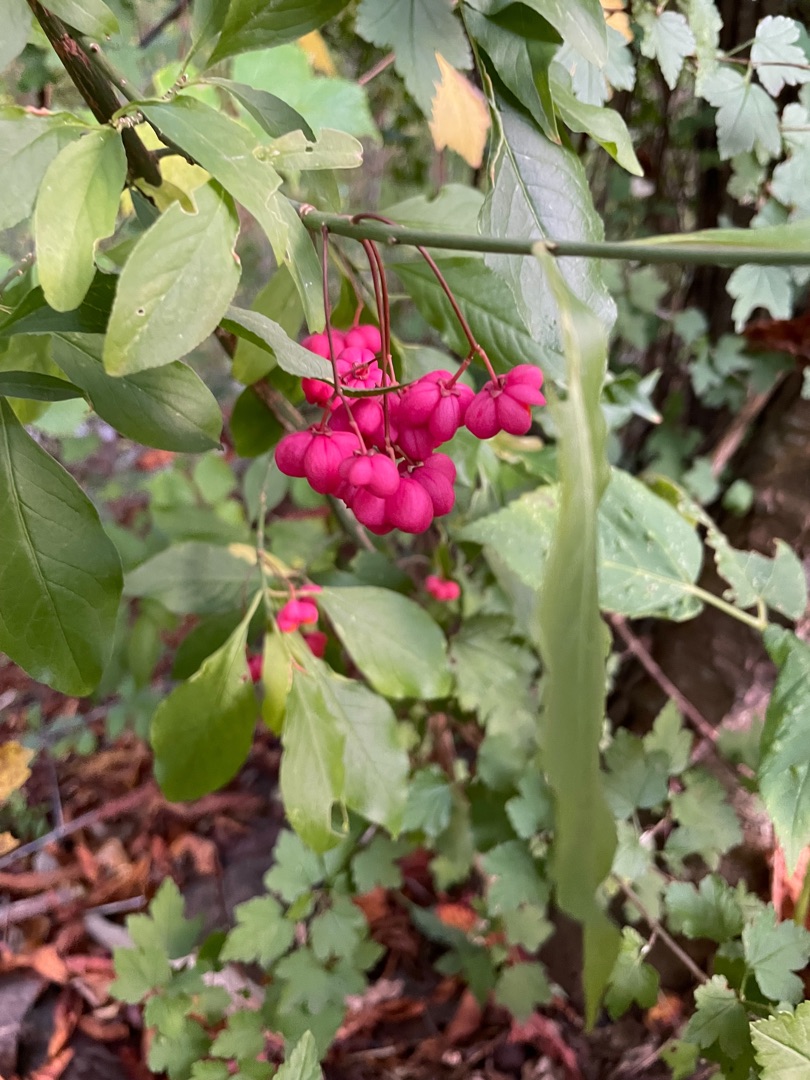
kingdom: Plantae
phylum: Tracheophyta
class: Magnoliopsida
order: Celastrales
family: Celastraceae
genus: Euonymus
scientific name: Euonymus europaeus
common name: Benved
